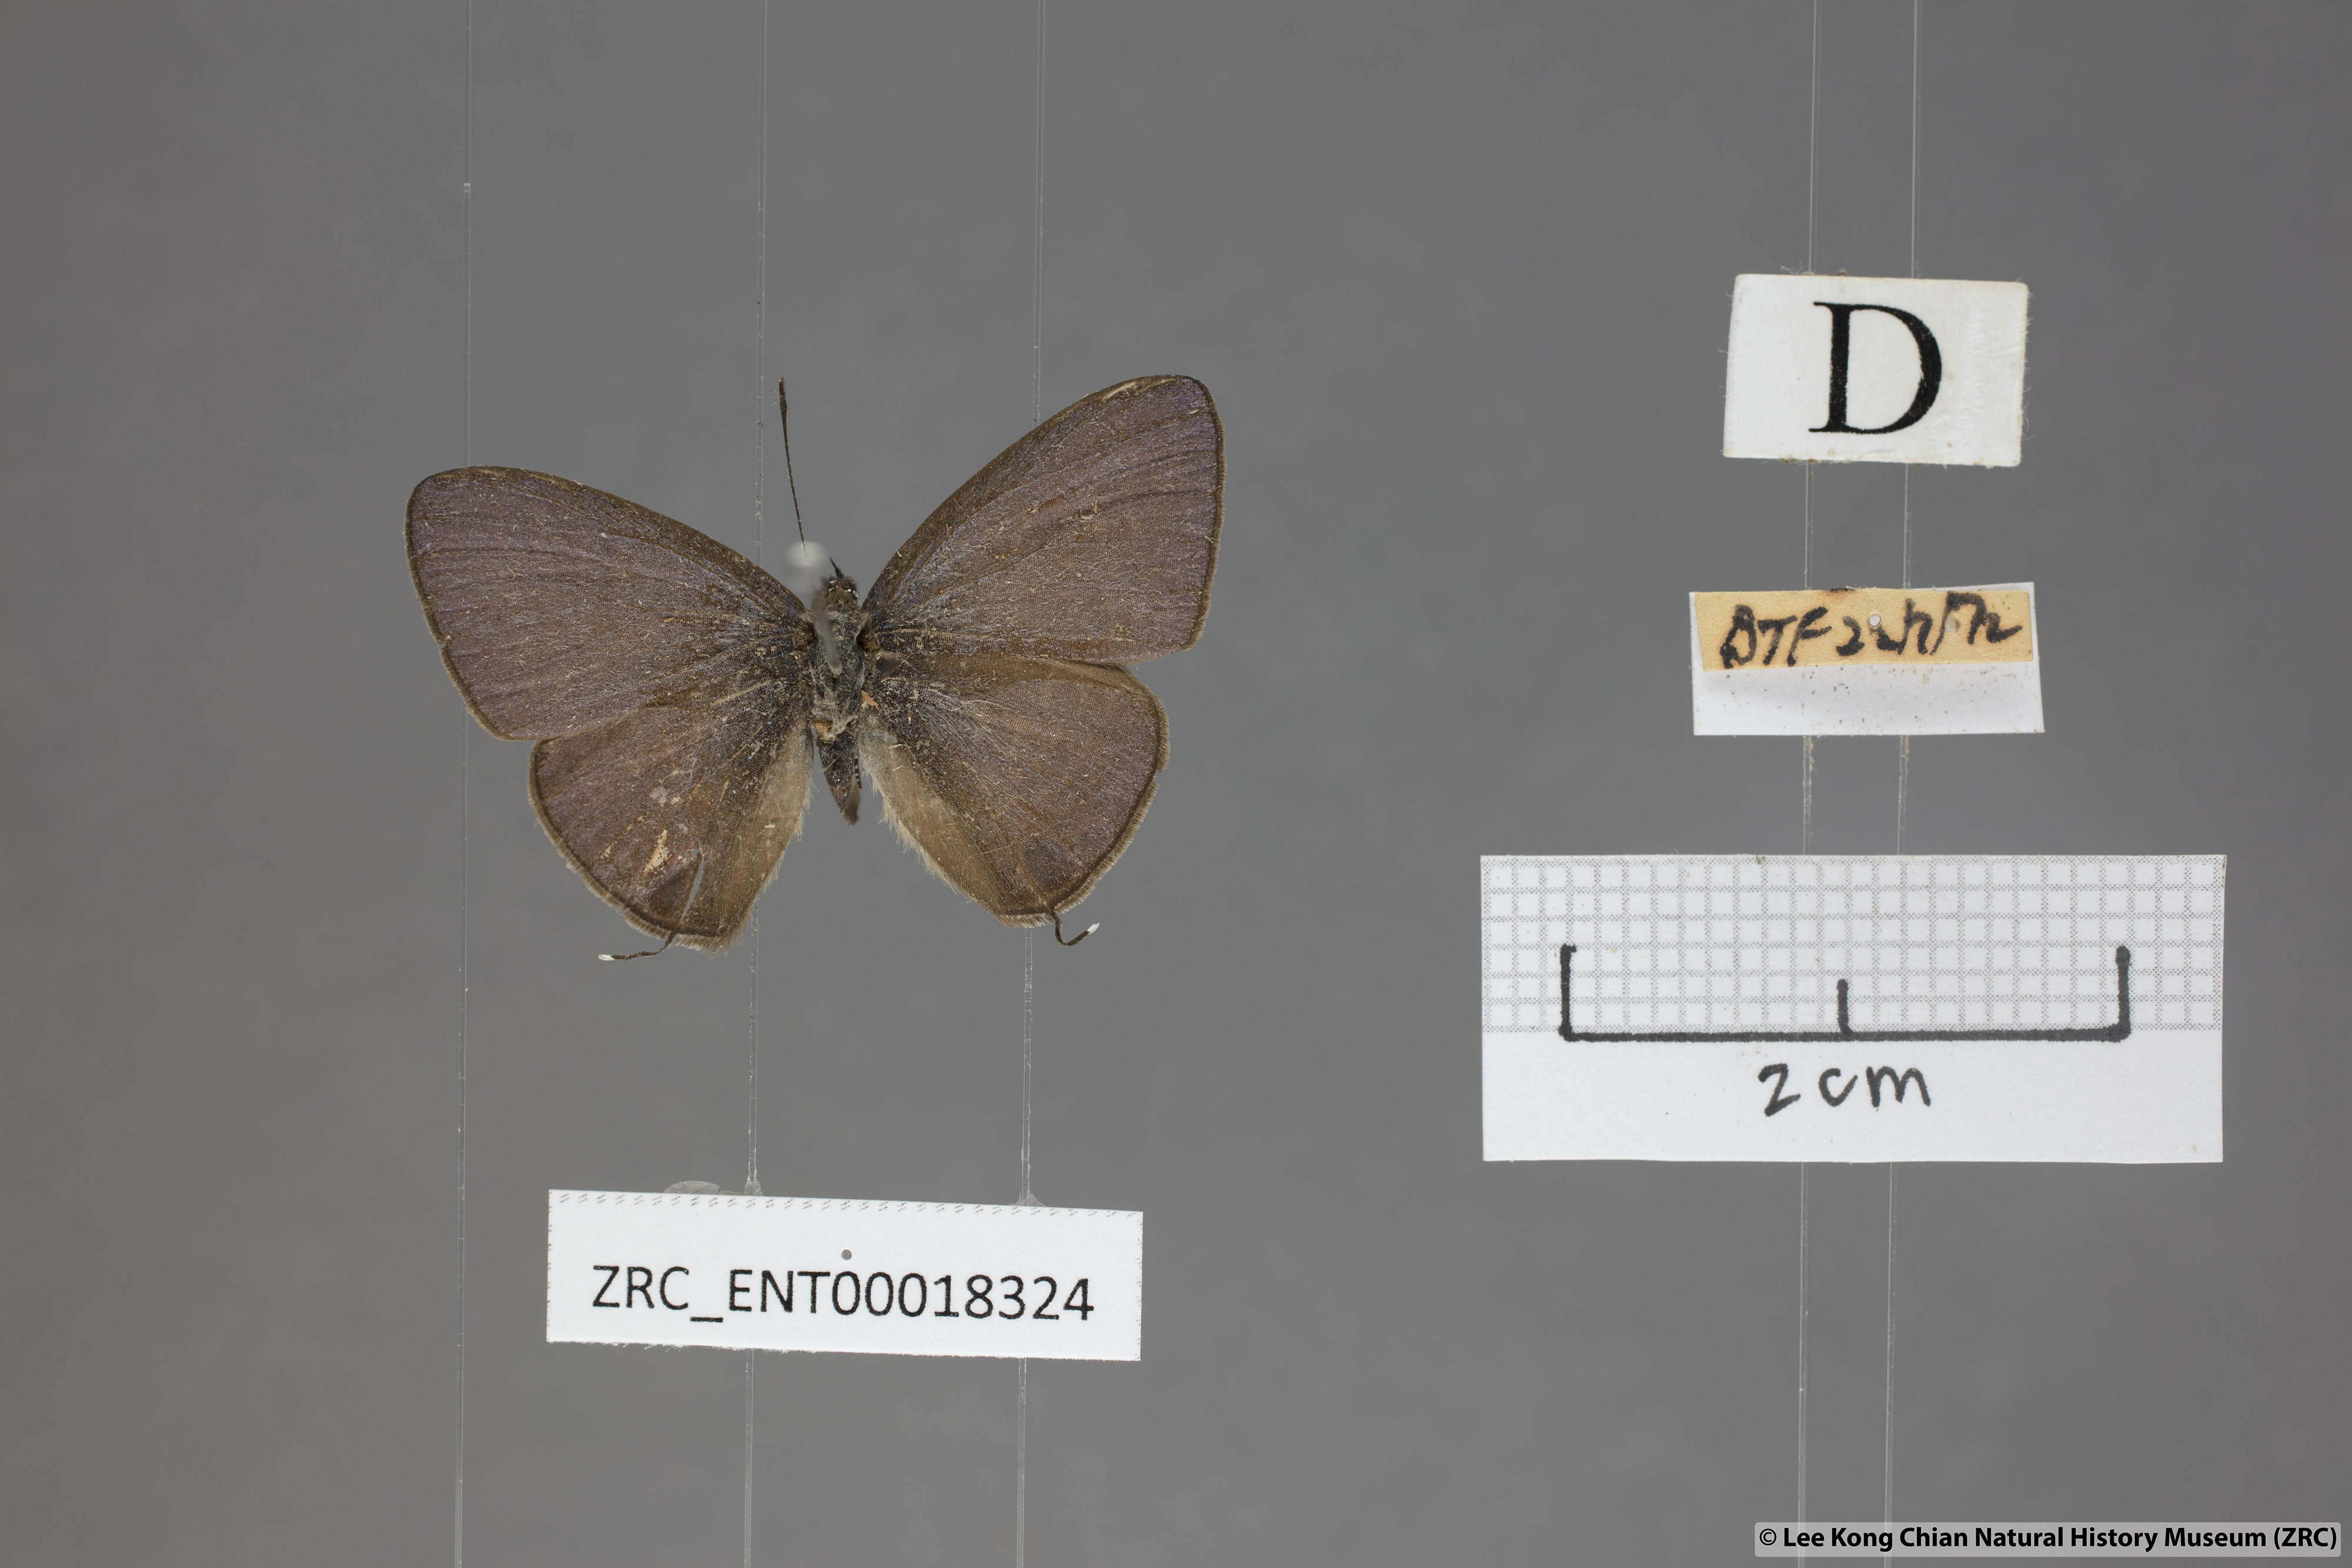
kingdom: Animalia
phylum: Arthropoda
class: Insecta
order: Lepidoptera
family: Lycaenidae
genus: Nacaduba
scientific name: Nacaduba beroe
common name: Opaque sixline blue
